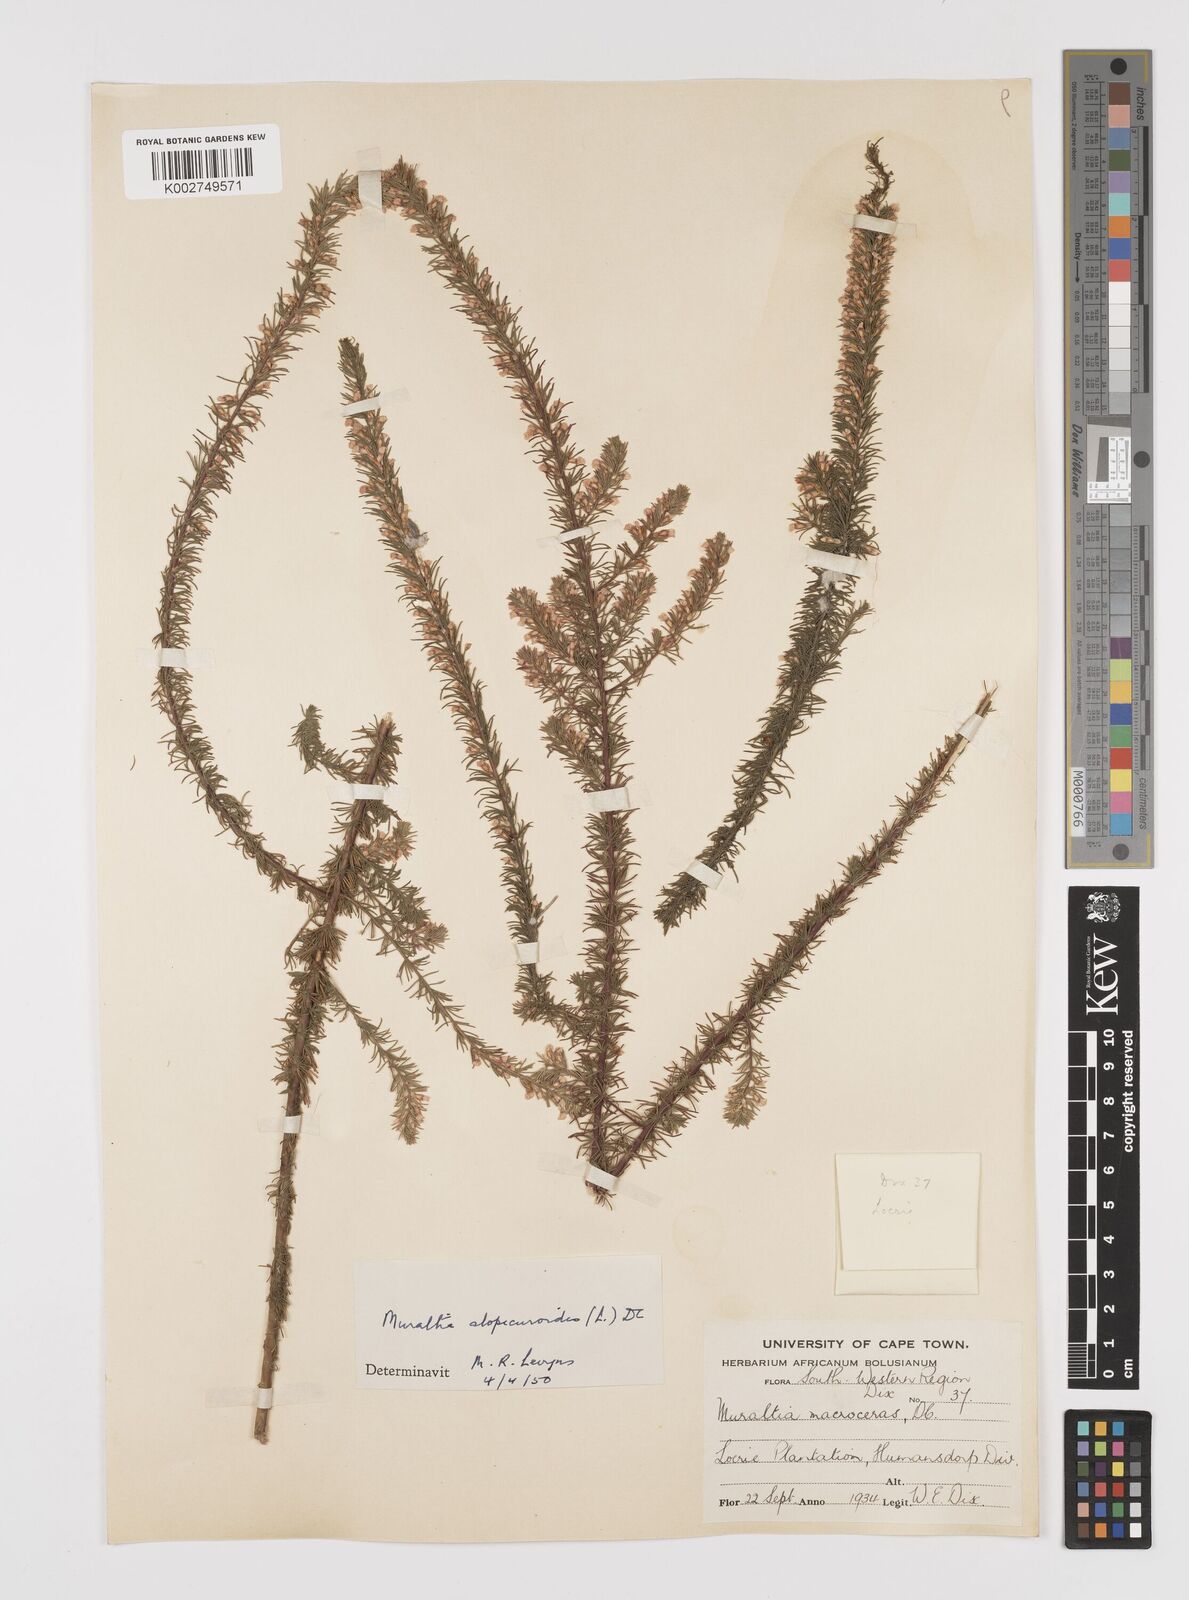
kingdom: Plantae
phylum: Tracheophyta
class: Magnoliopsida
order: Fabales
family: Polygalaceae
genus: Muraltia
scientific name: Muraltia alopecuroides
